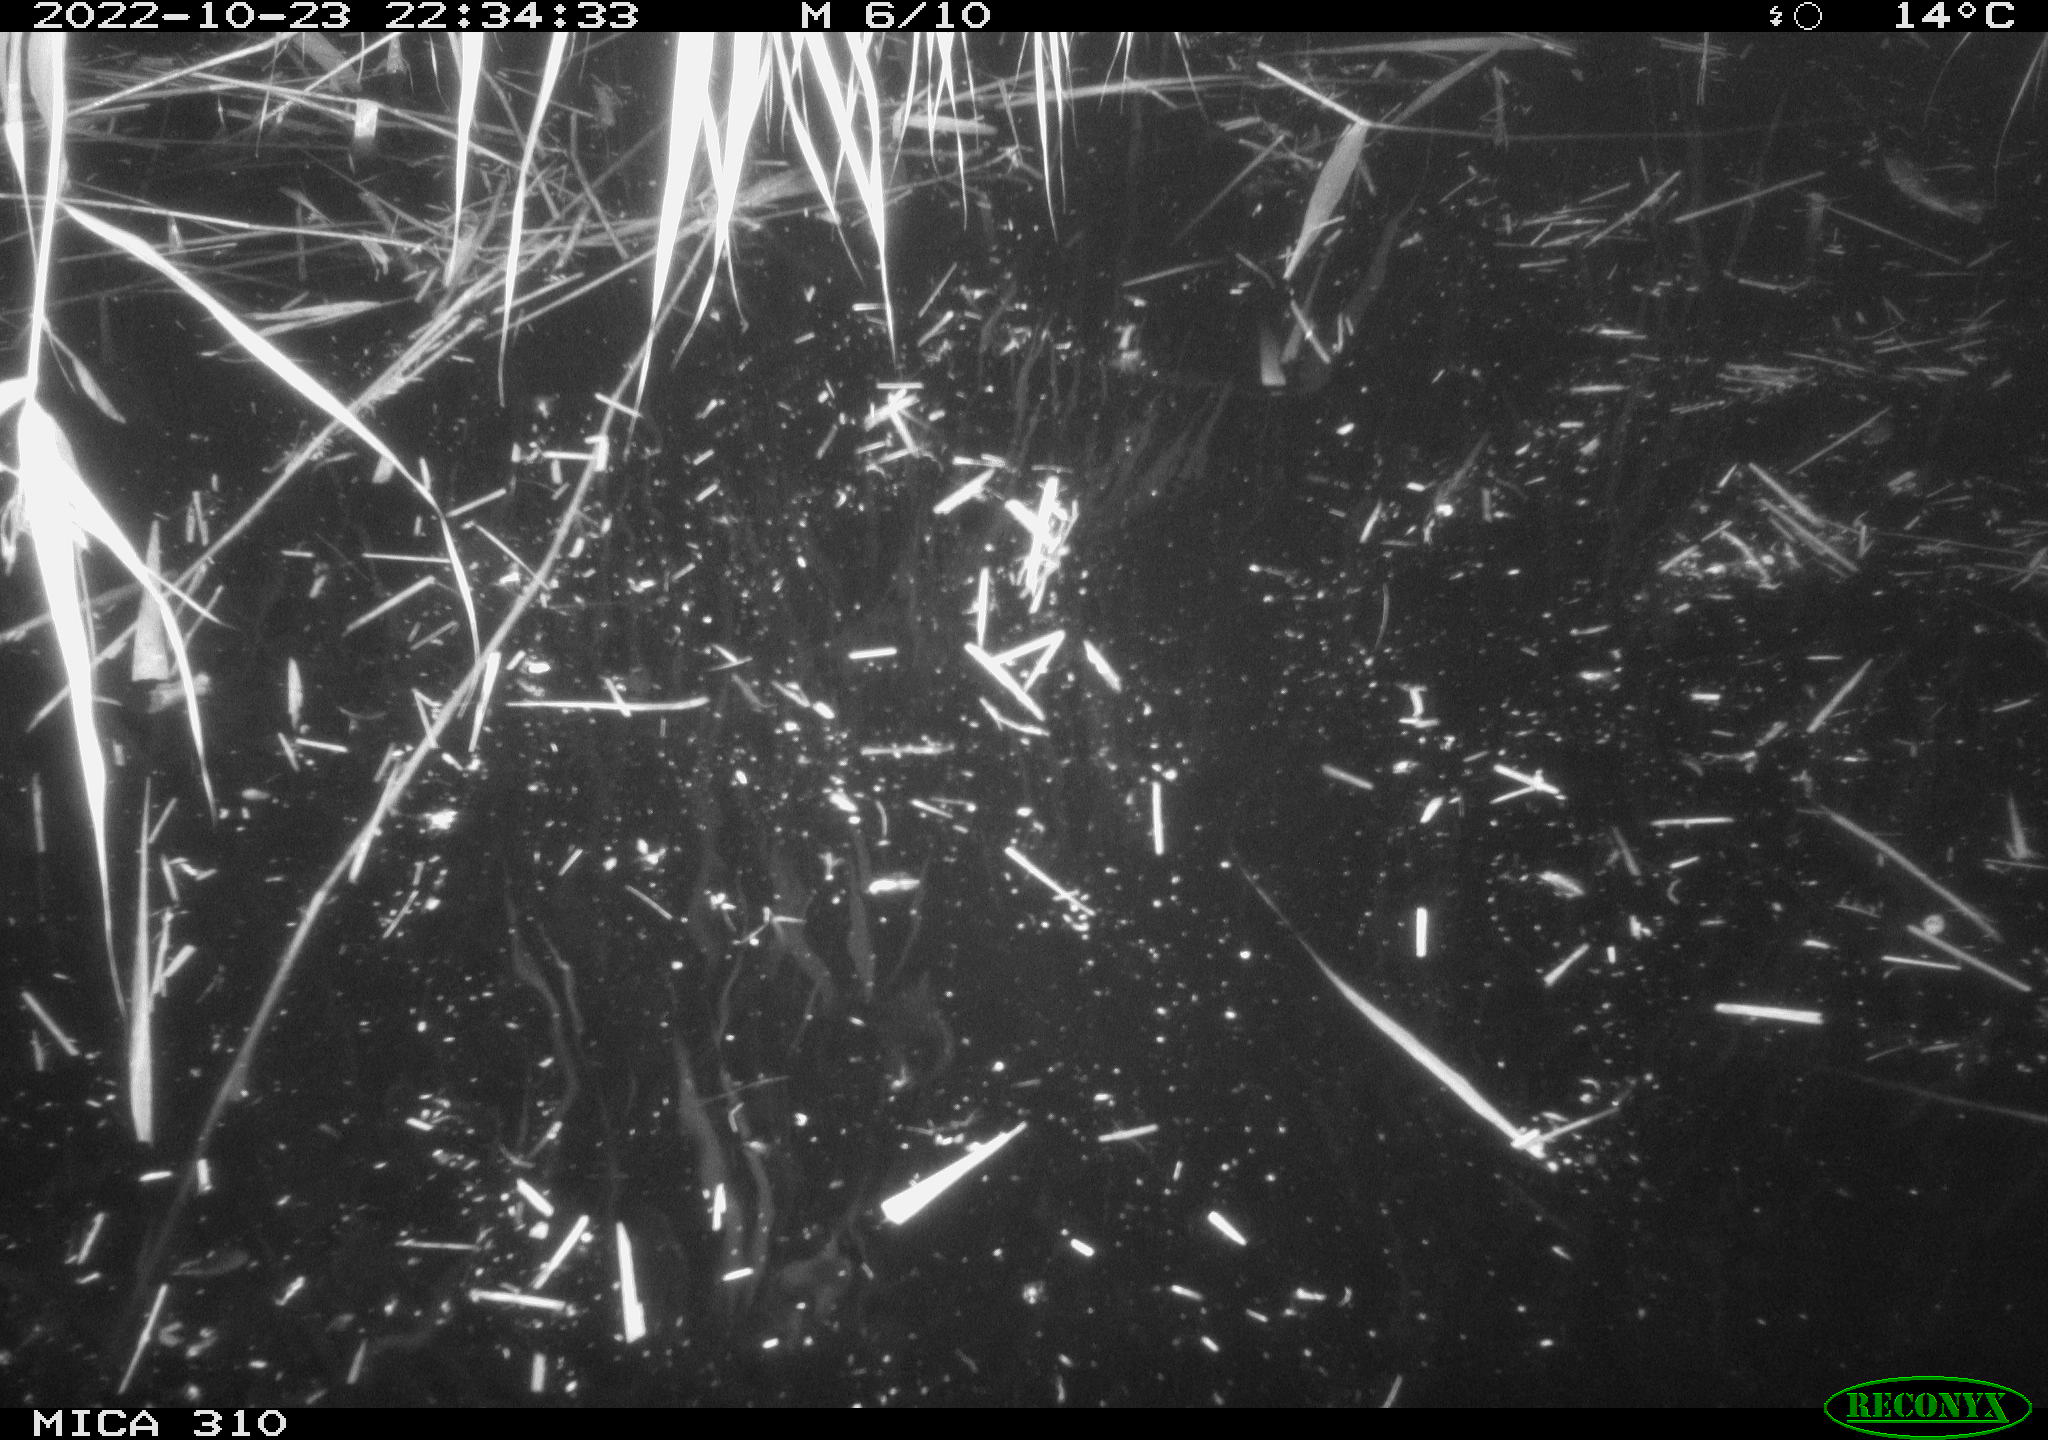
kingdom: Animalia
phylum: Chordata
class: Mammalia
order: Rodentia
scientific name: Rodentia
